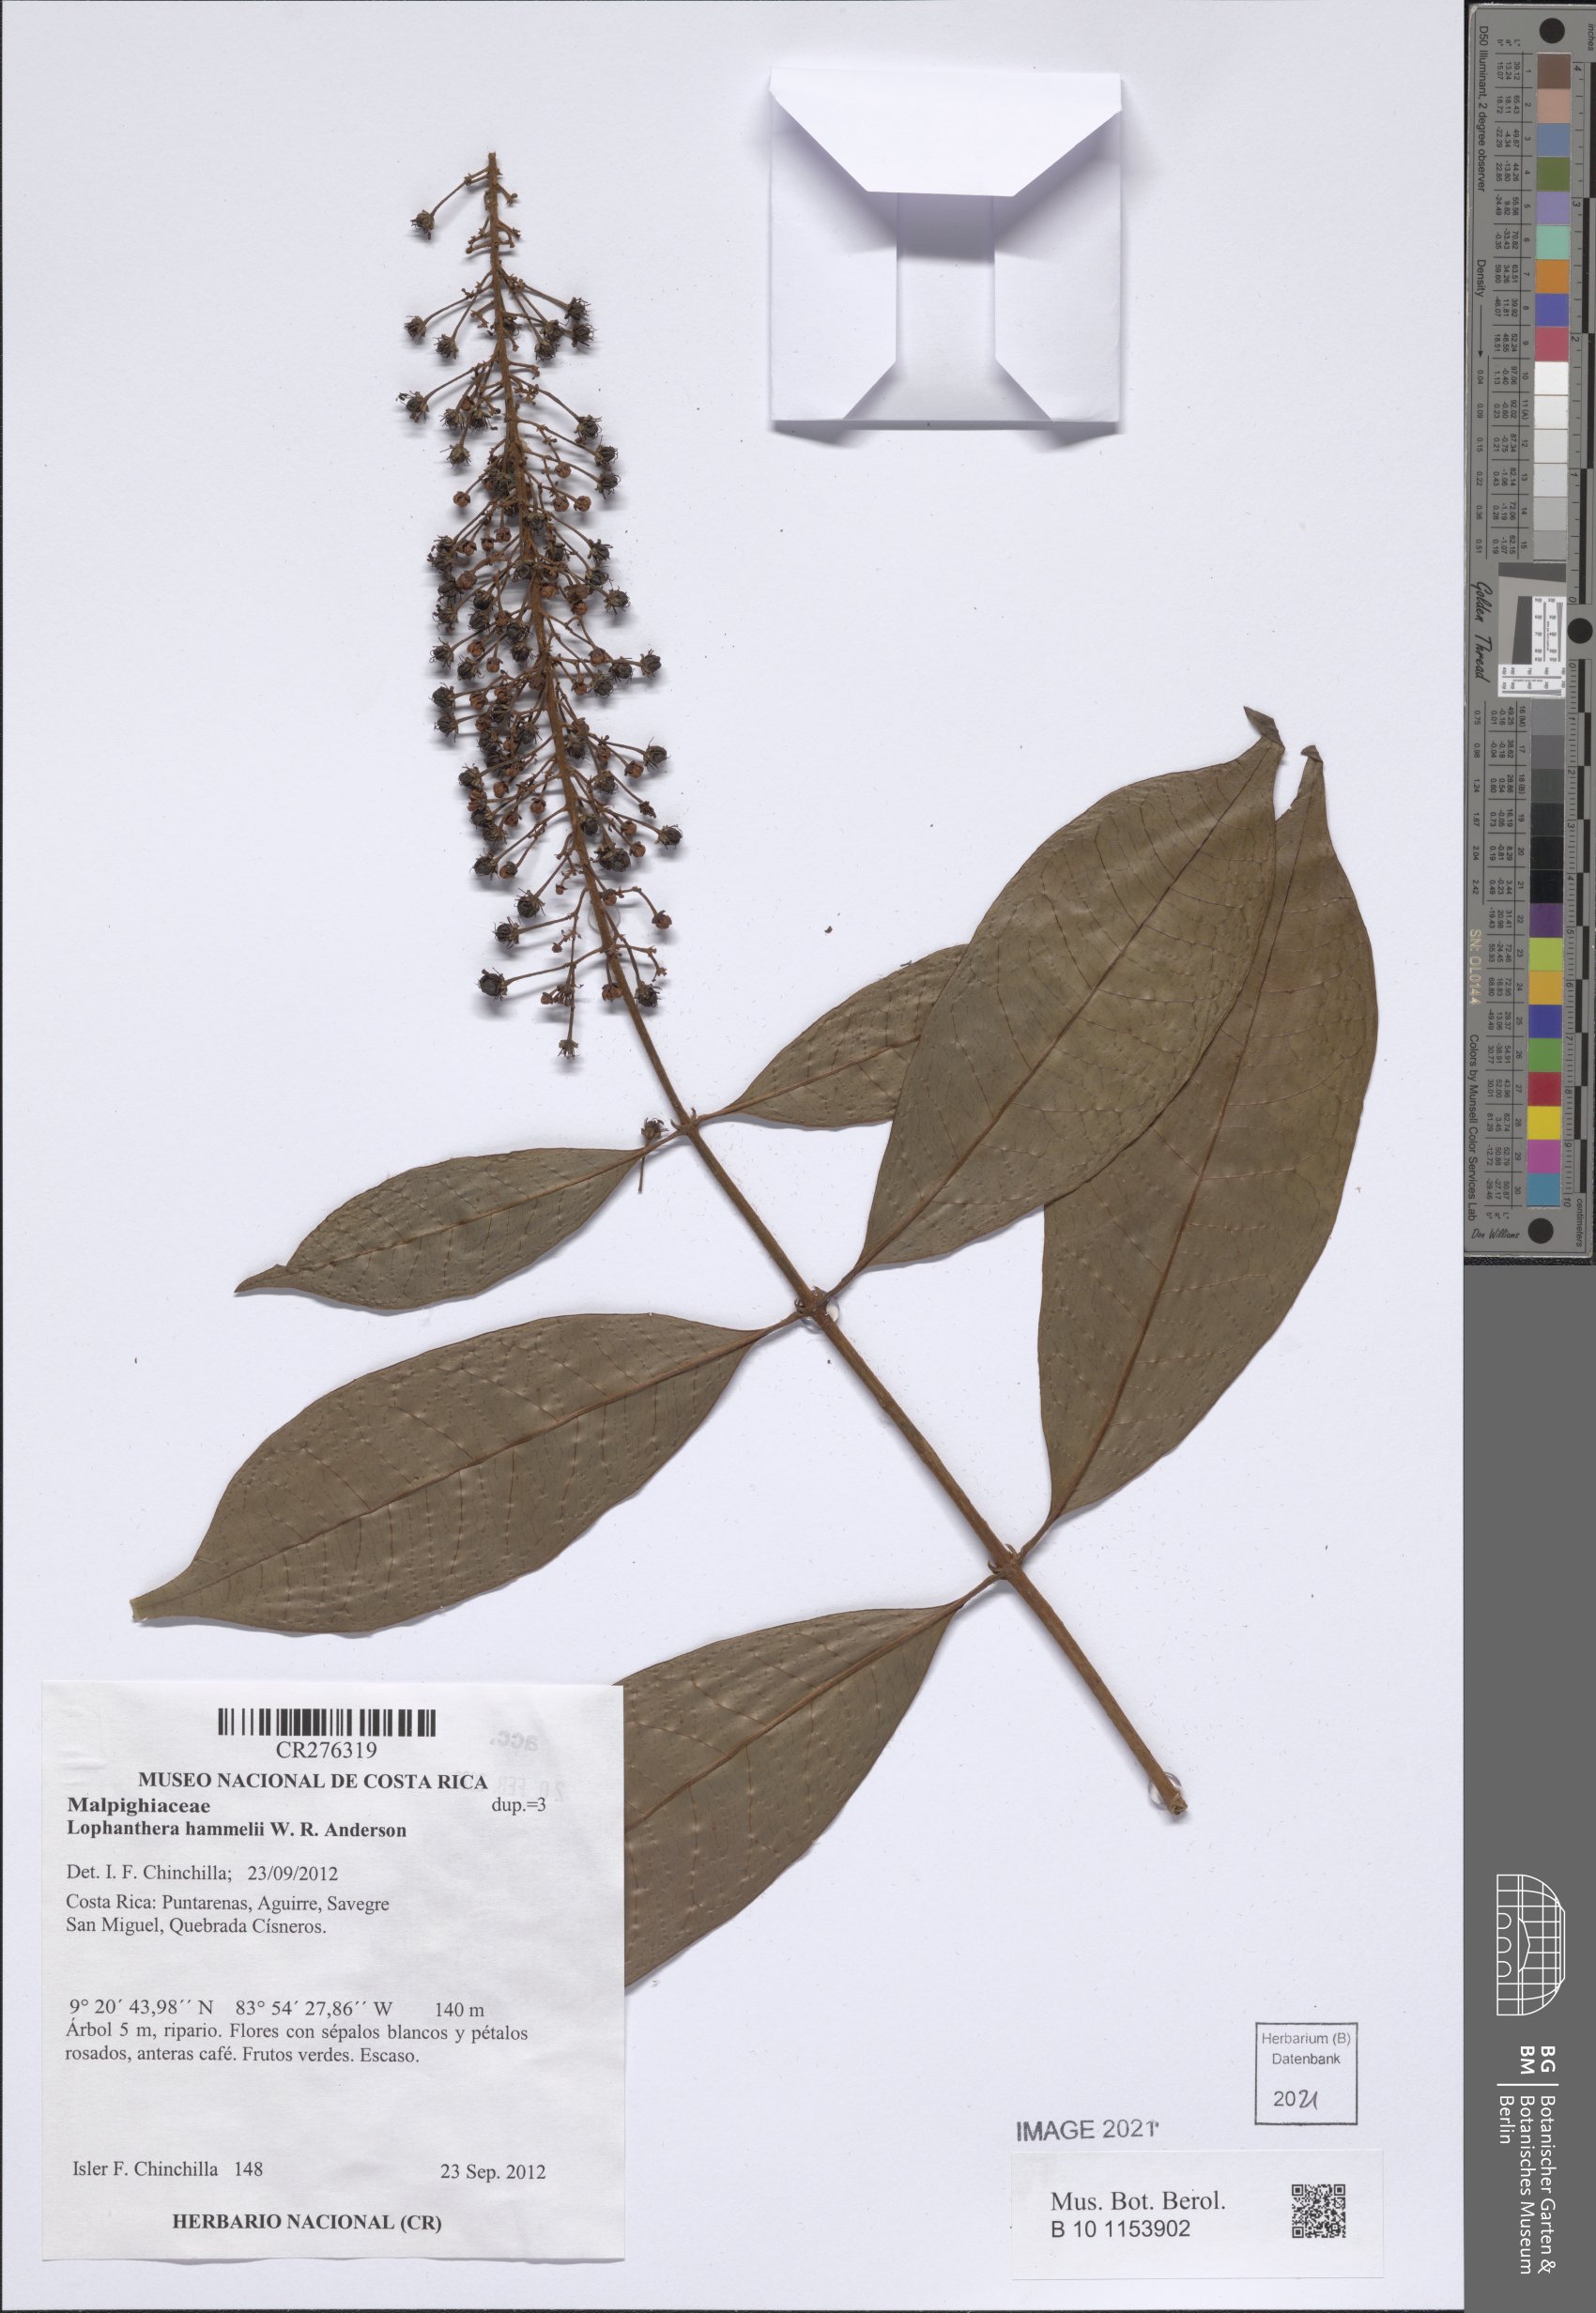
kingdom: Plantae
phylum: Tracheophyta
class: Magnoliopsida
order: Malpighiales
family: Malpighiaceae
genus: Andersoniodoxa
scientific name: Andersoniodoxa hammelii
